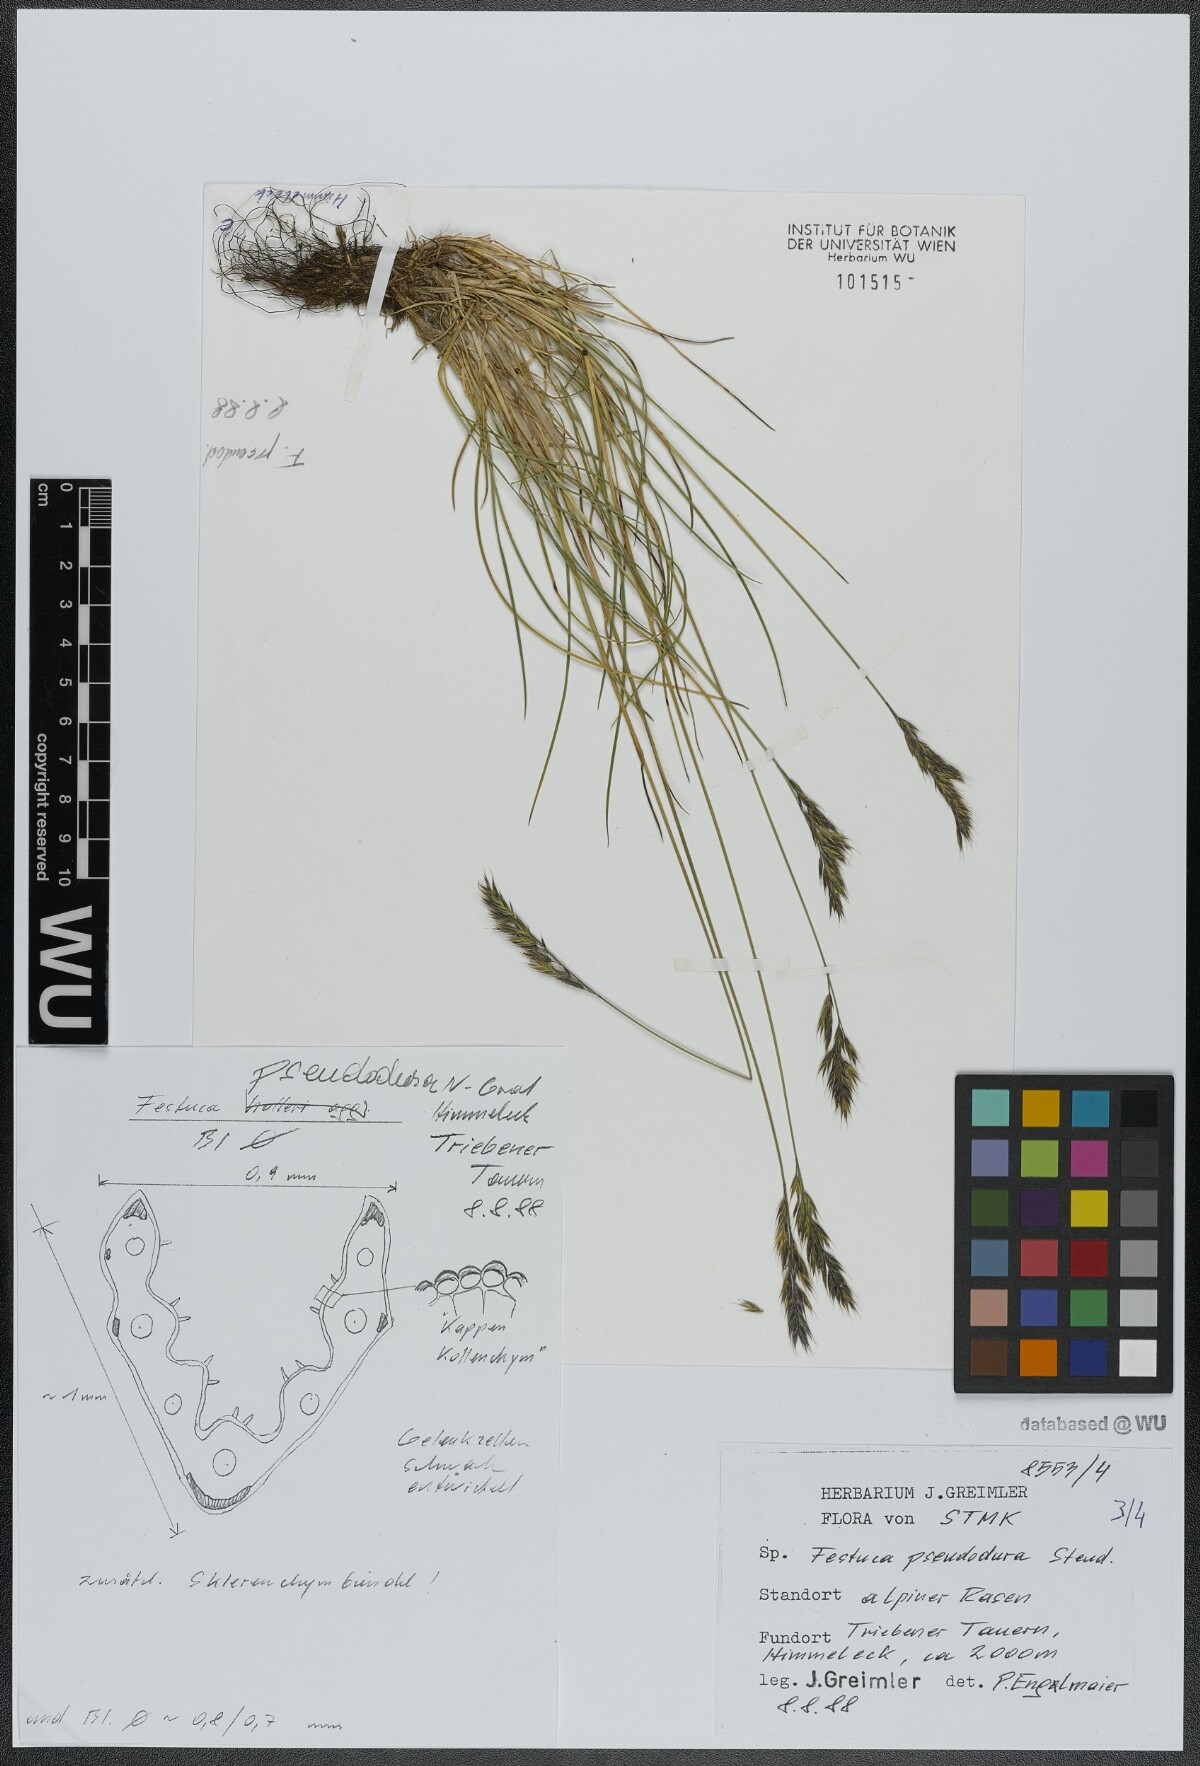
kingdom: Plantae
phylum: Tracheophyta
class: Liliopsida
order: Poales
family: Poaceae
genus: Festuca
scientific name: Festuca pseudodura
